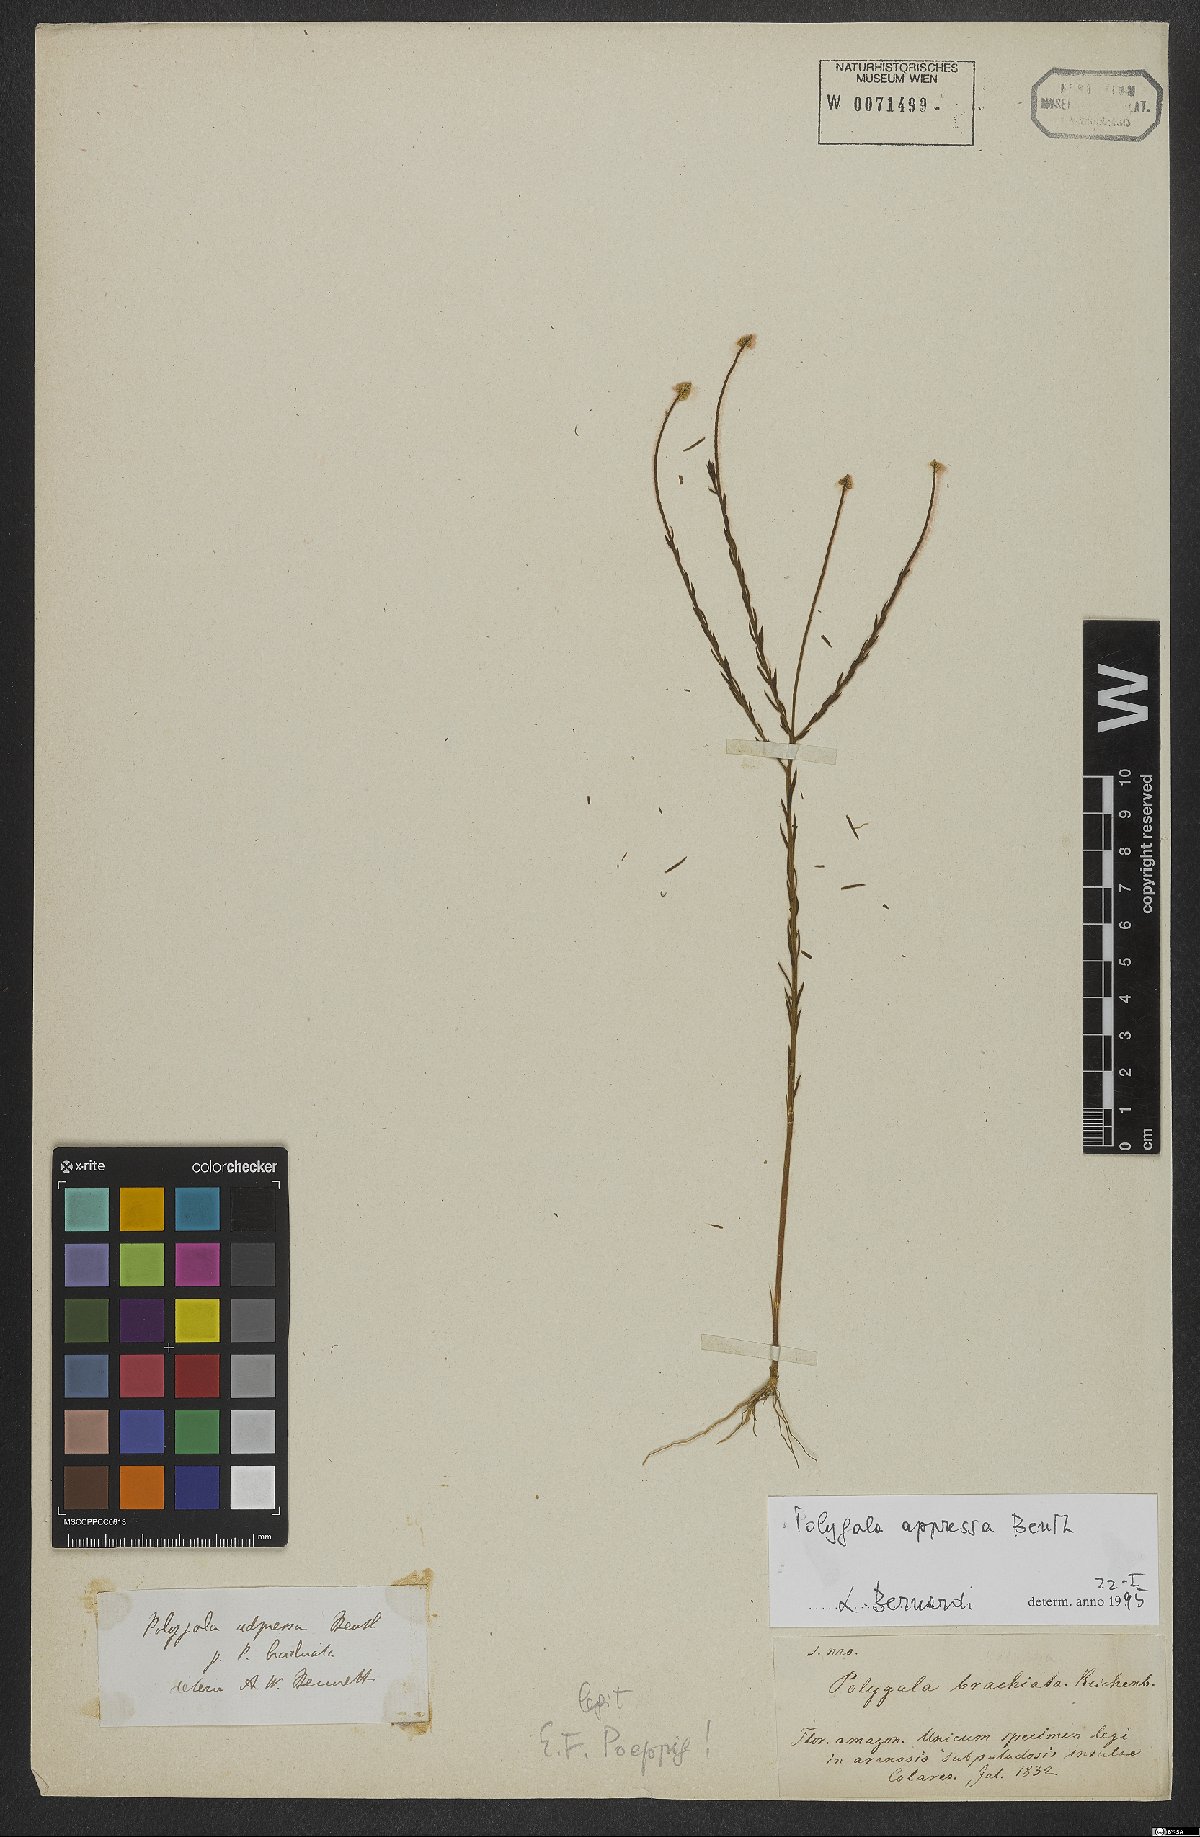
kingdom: Plantae
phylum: Tracheophyta
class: Magnoliopsida
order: Fabales
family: Polygalaceae
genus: Polygala
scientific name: Polygala appressa
